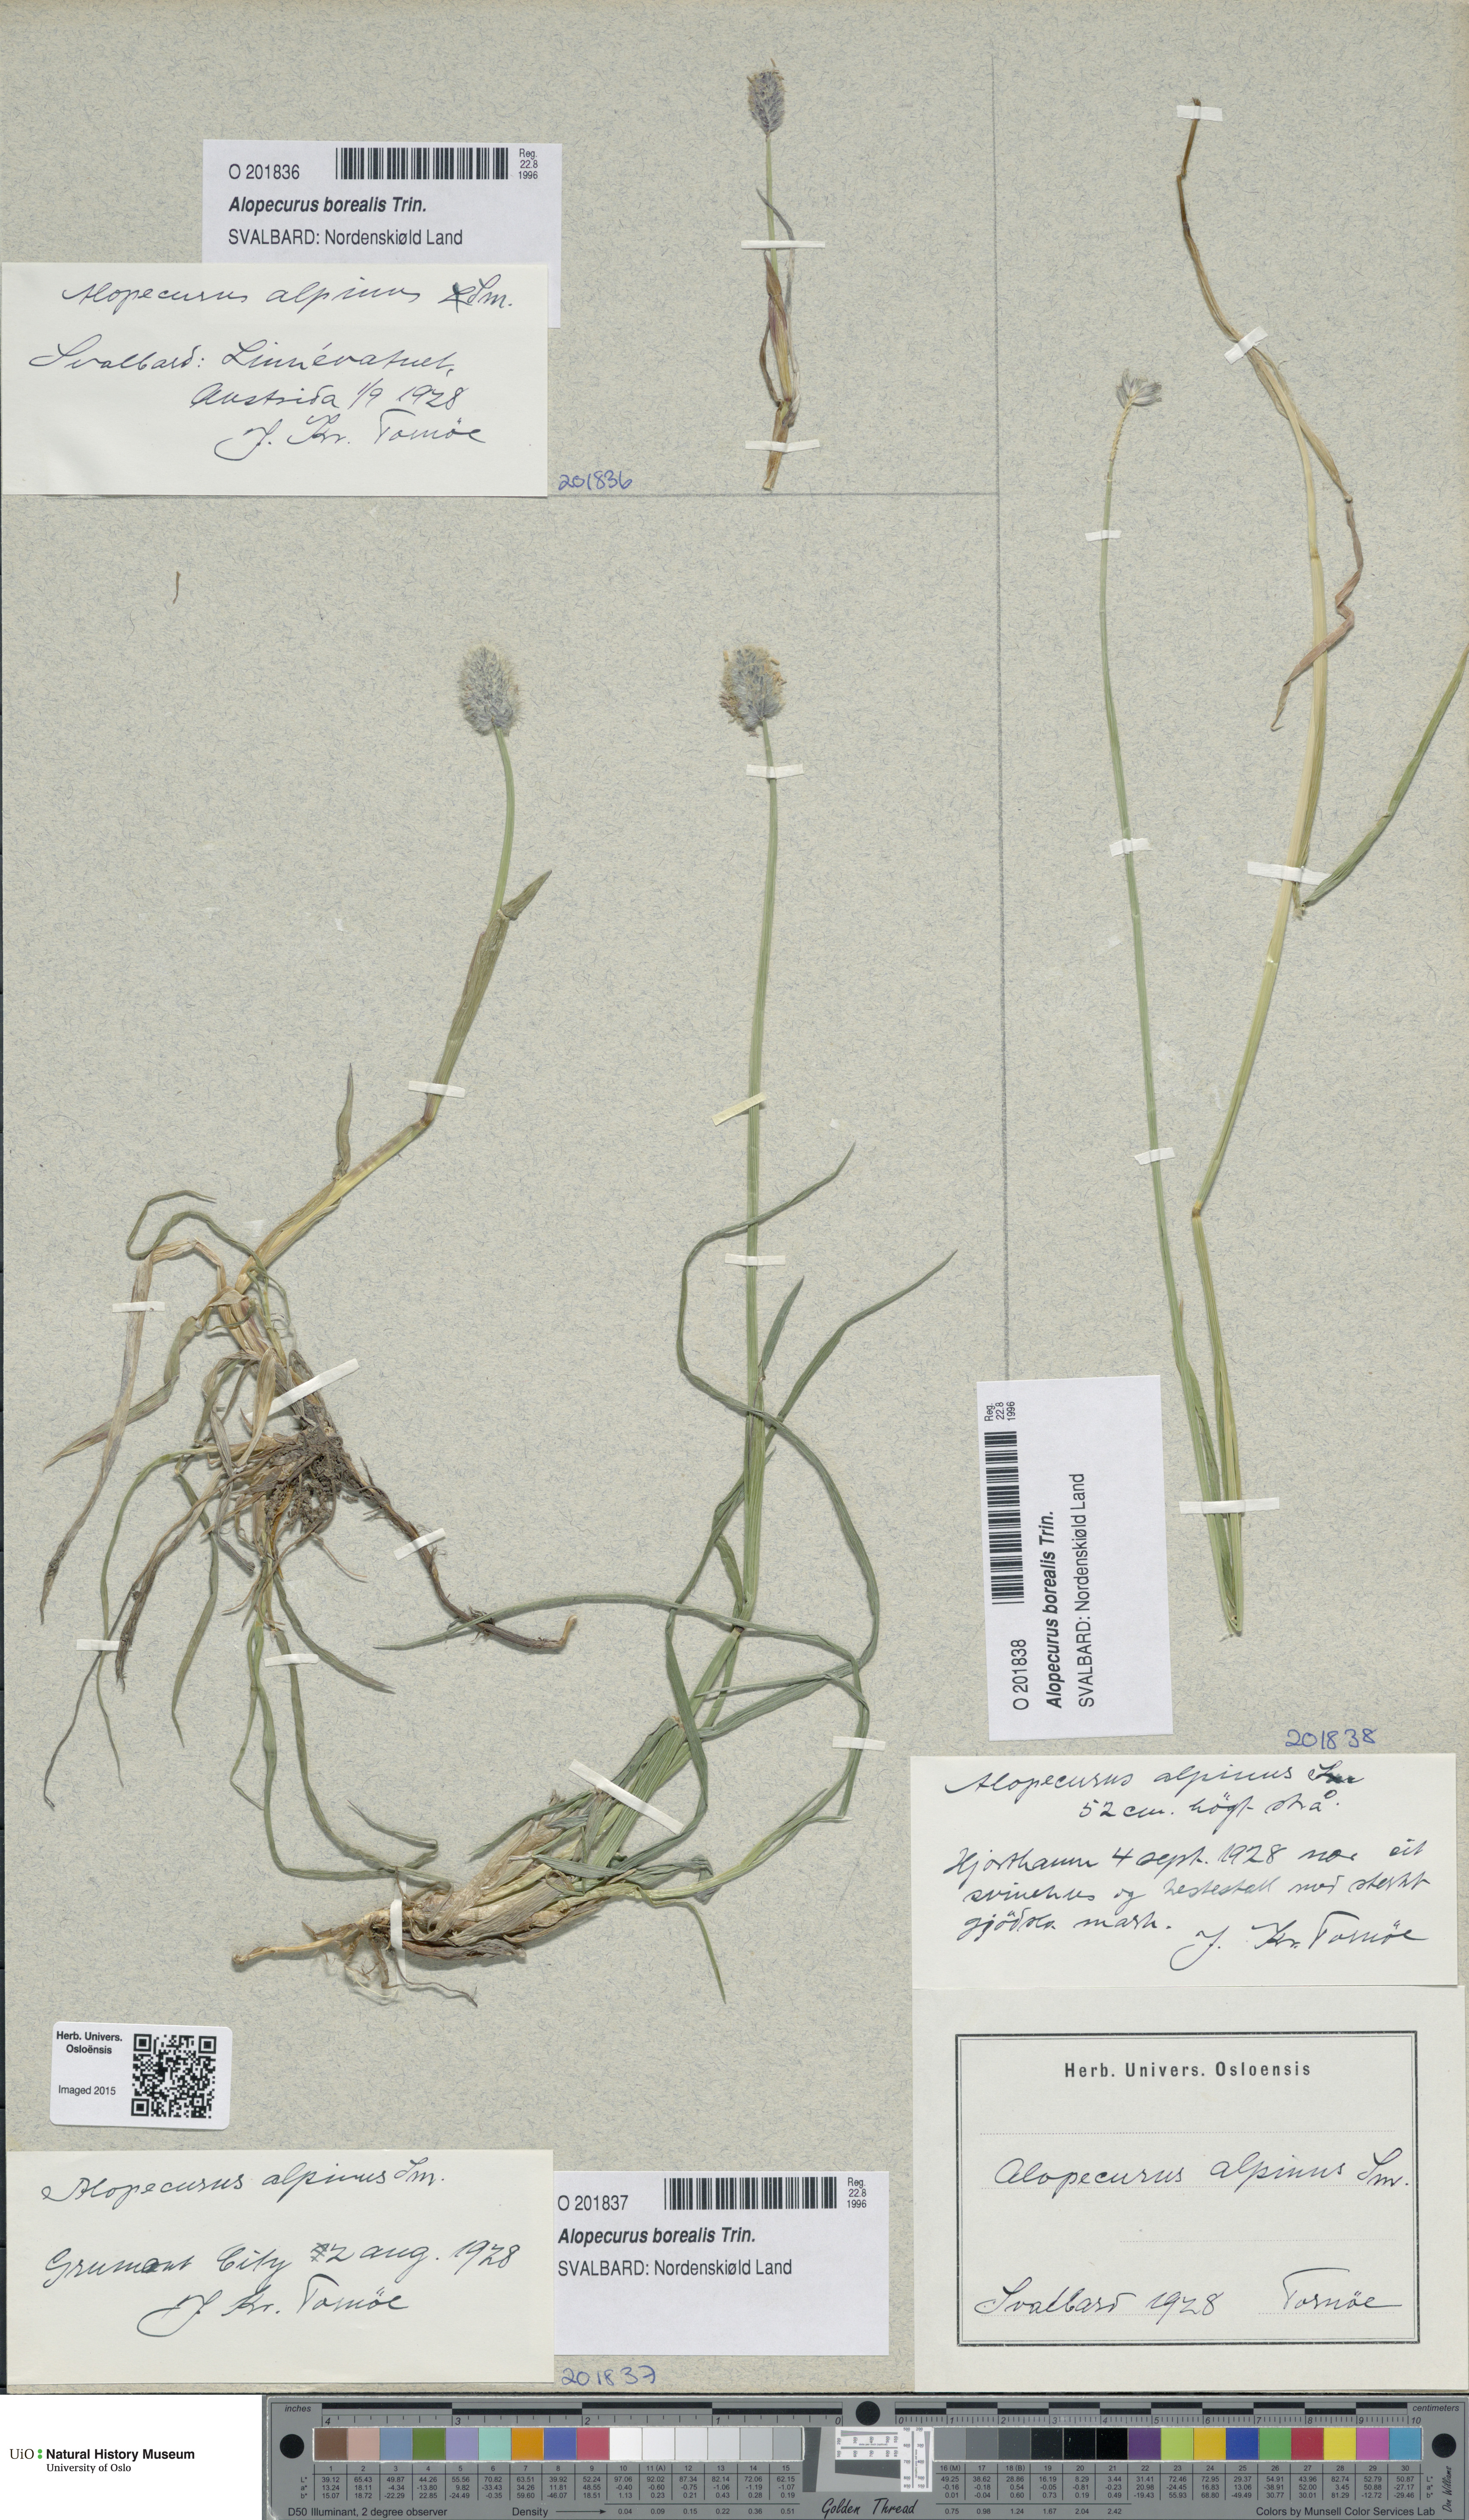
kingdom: Plantae
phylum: Tracheophyta
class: Liliopsida
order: Poales
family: Poaceae
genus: Alopecurus
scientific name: Alopecurus magellanicus
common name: Alpine foxtail
